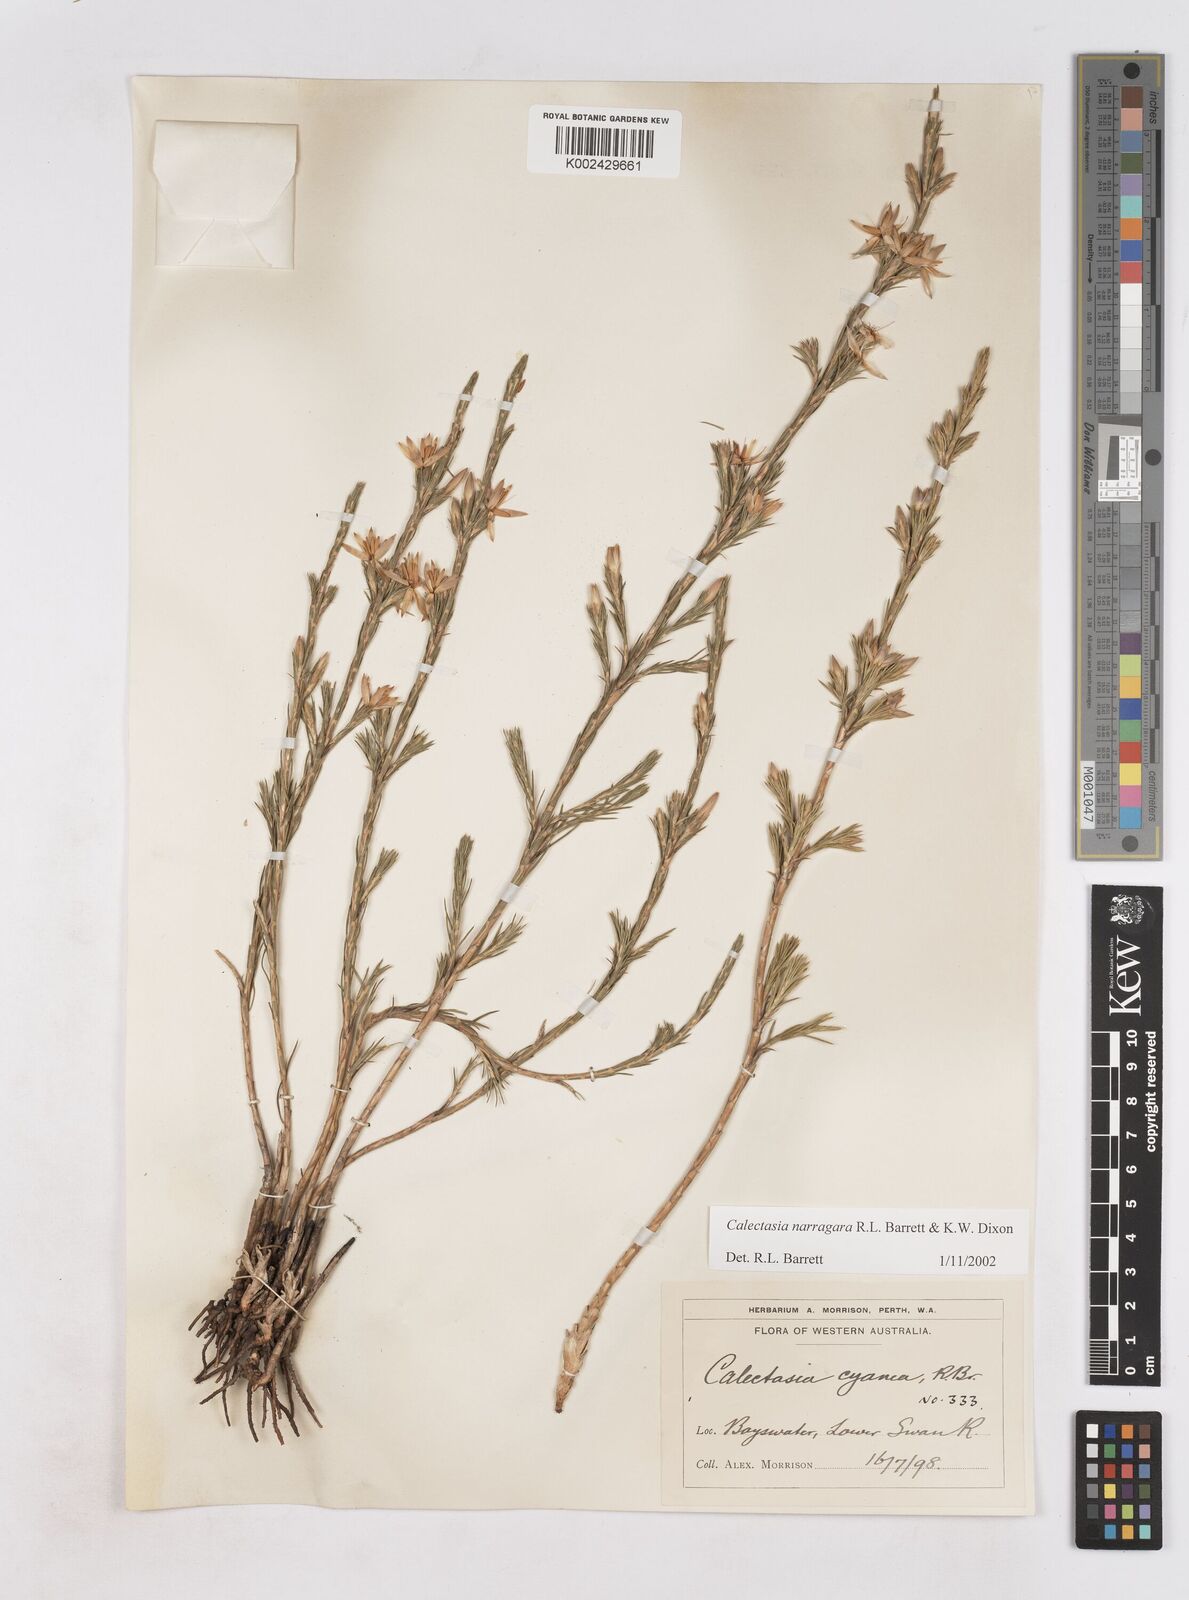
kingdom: Plantae
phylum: Tracheophyta
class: Liliopsida
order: Arecales
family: Dasypogonaceae
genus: Calectasia
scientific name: Calectasia narragara
